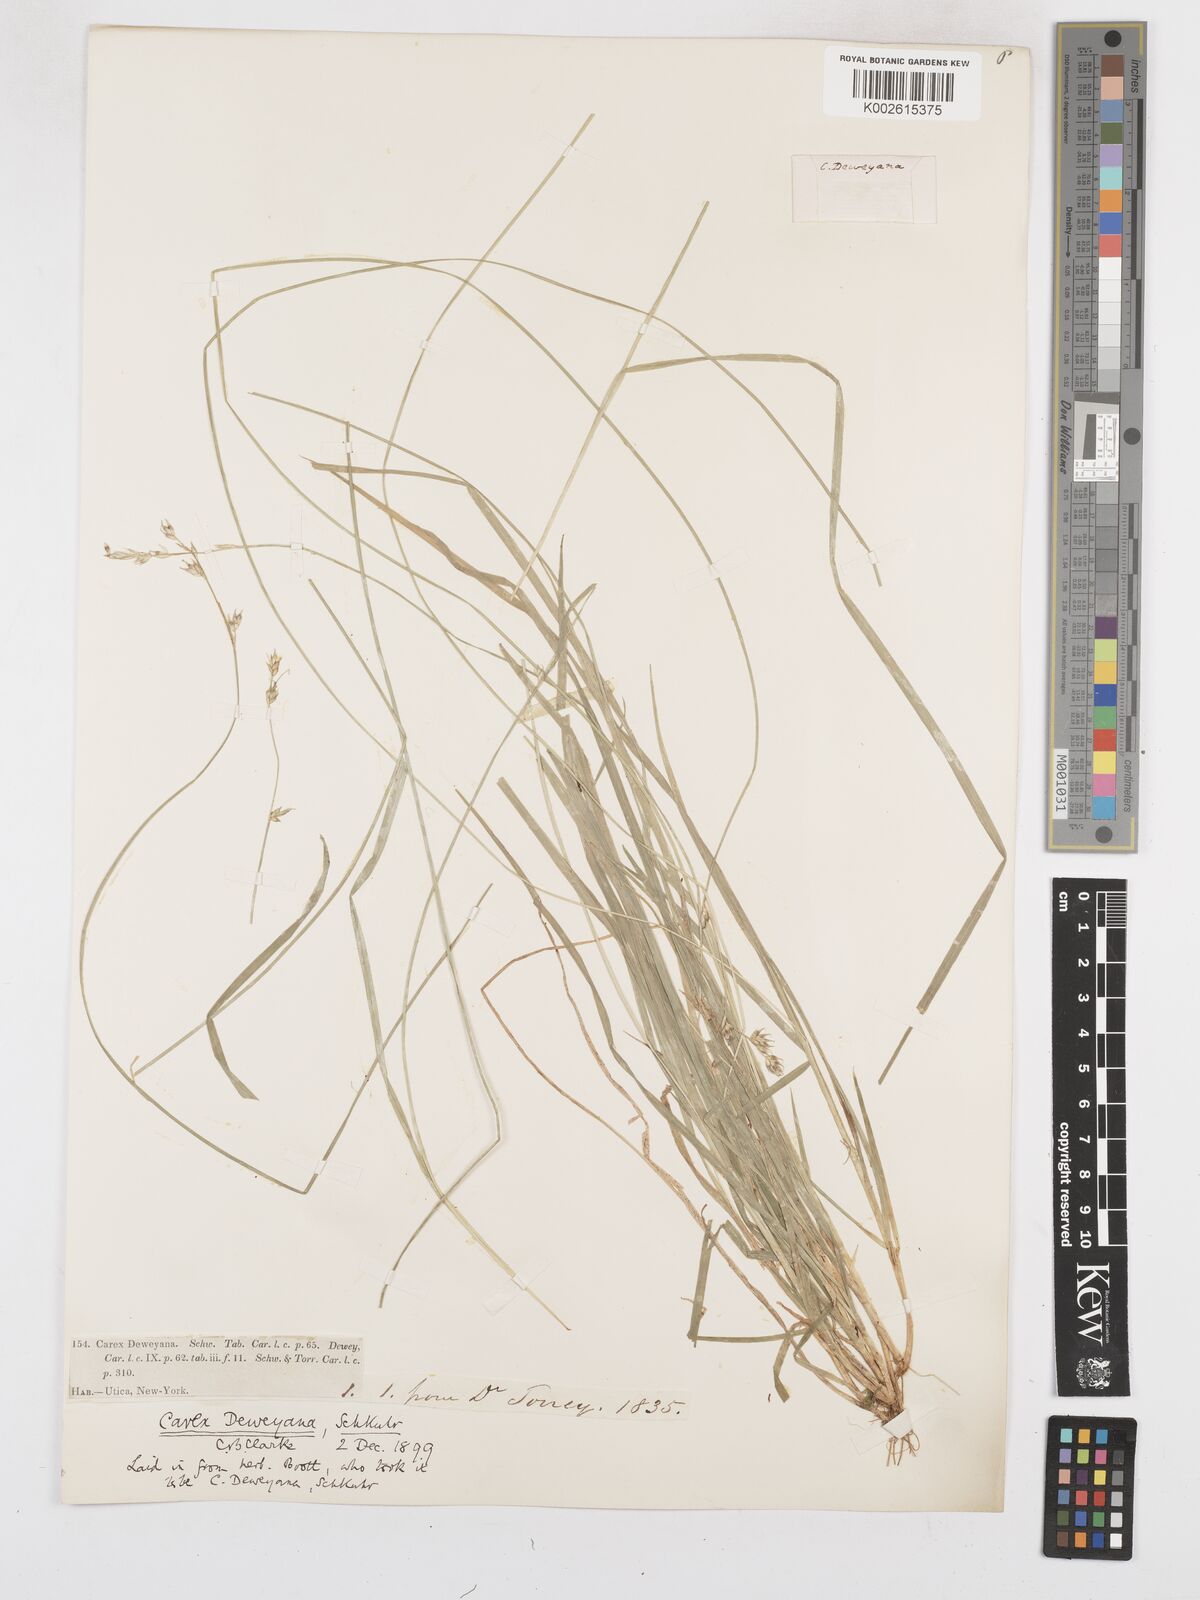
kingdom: Plantae
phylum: Tracheophyta
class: Liliopsida
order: Poales
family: Cyperaceae
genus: Carex
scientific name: Carex deweyana
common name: Dewey's sedge
